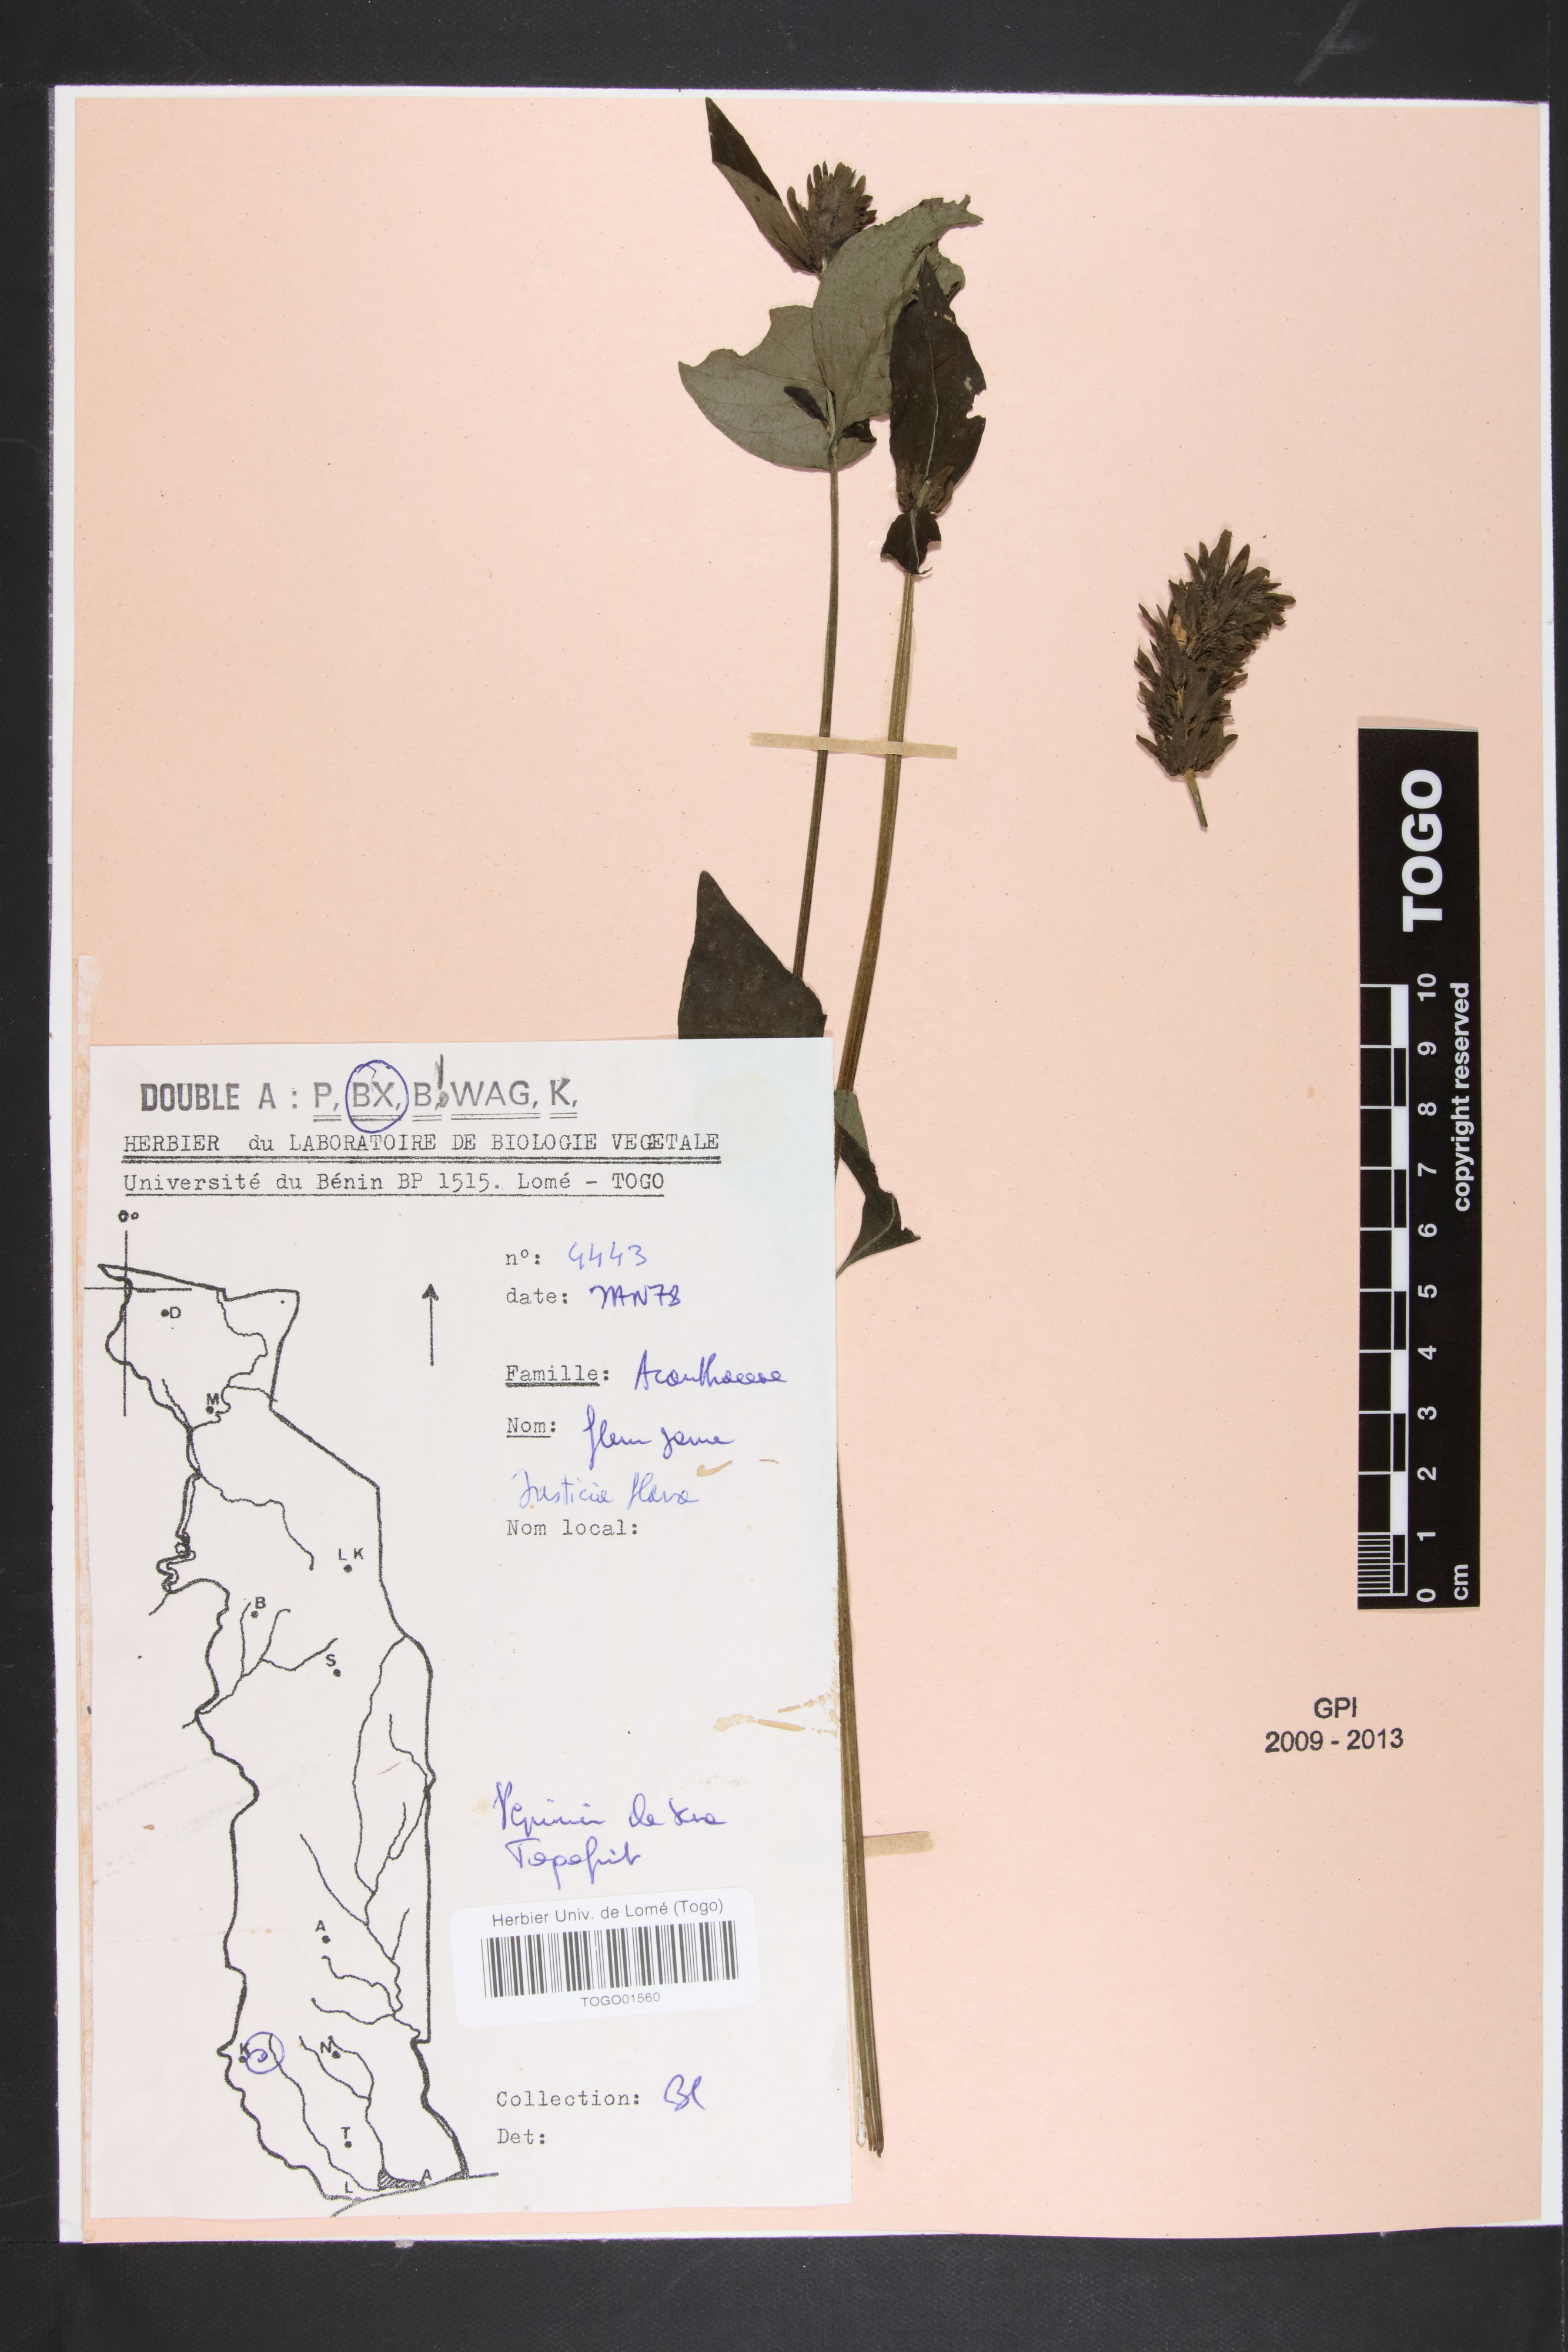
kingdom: Plantae
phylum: Tracheophyta
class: Magnoliopsida
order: Lamiales
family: Acanthaceae
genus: Justicia
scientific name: Justicia flava
